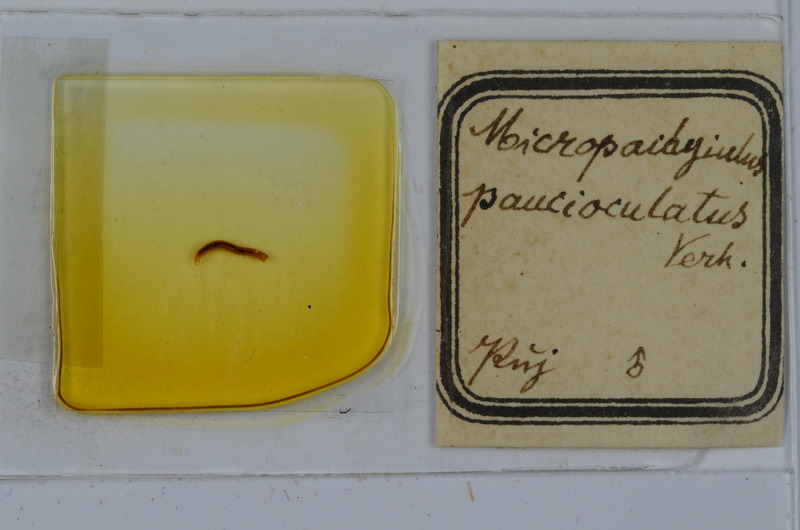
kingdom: Animalia
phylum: Arthropoda
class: Diplopoda
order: Julida
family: Julidae
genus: Micropachyiulus
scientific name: Micropachyiulus paucioculatus
